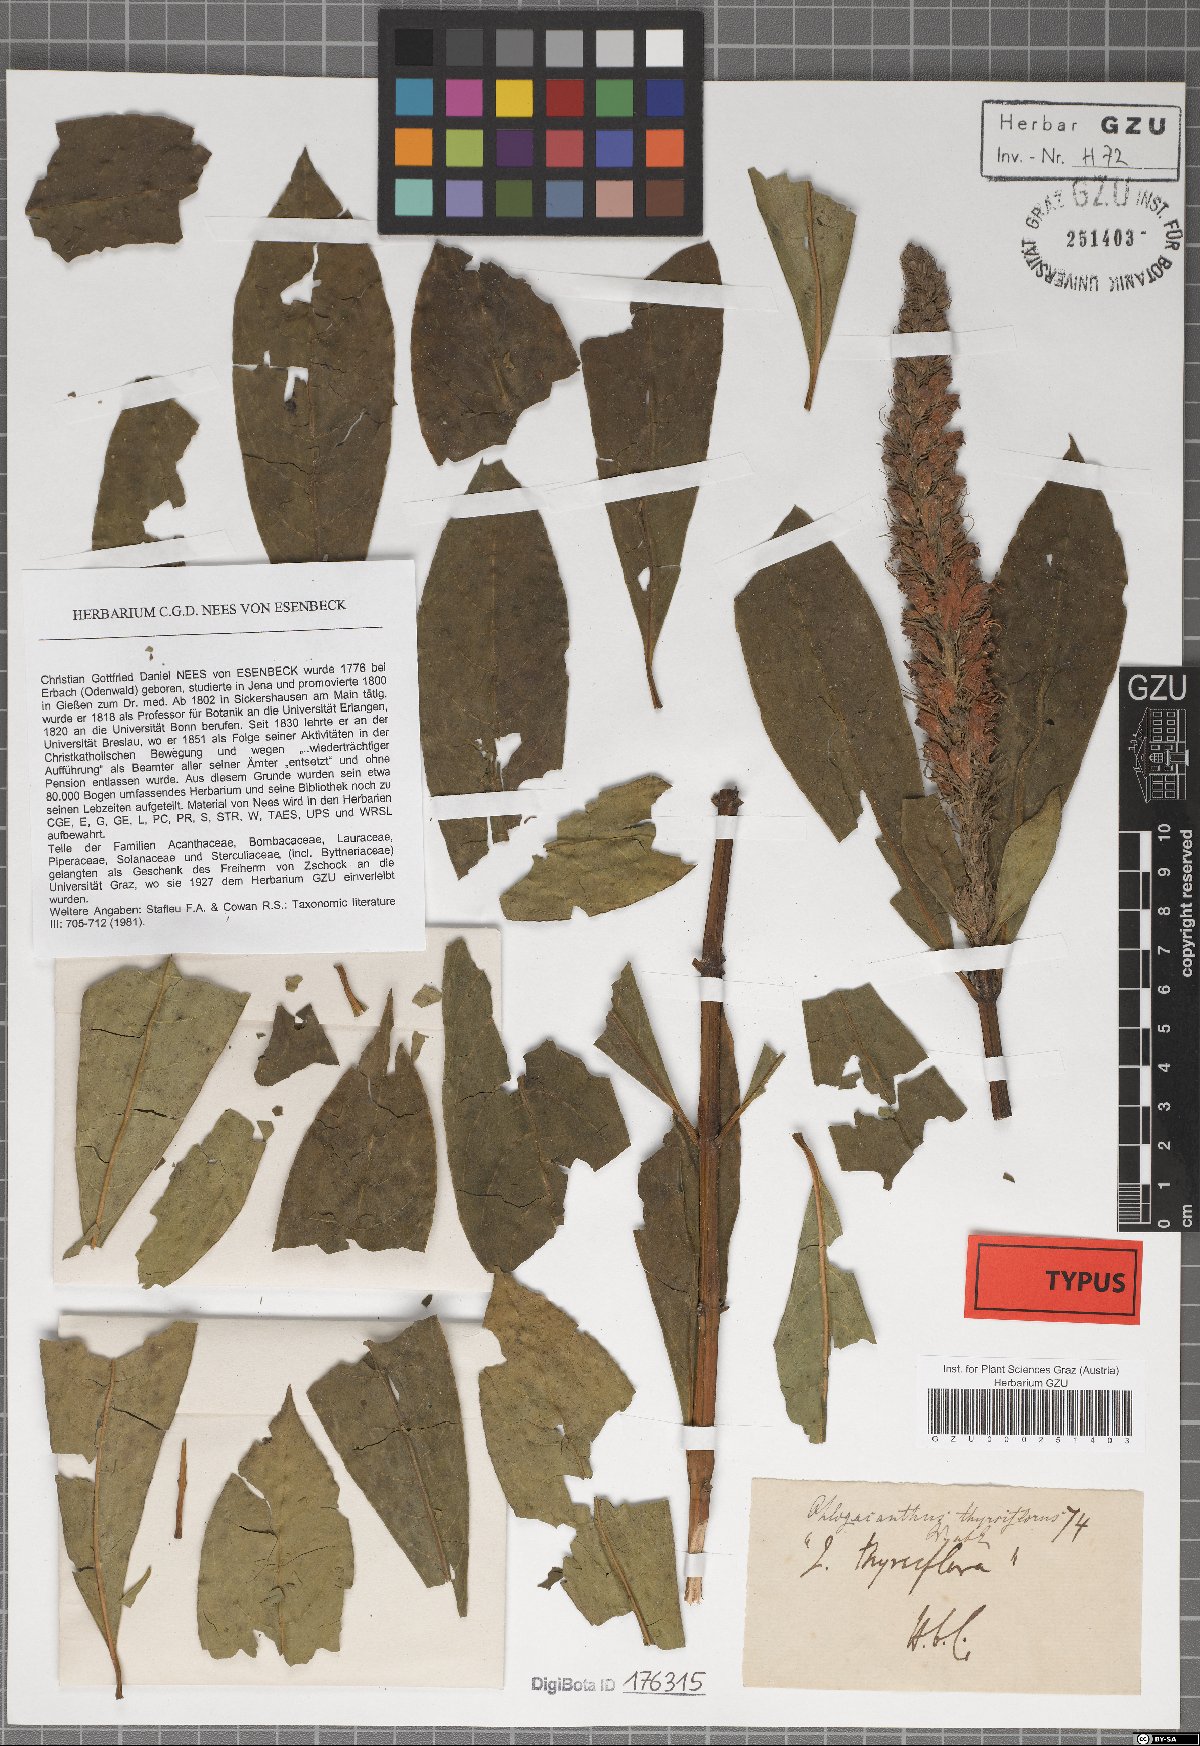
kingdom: Plantae
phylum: Tracheophyta
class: Magnoliopsida
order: Lamiales
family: Acanthaceae
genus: Phlogacanthus
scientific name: Phlogacanthus thyrsiformis
